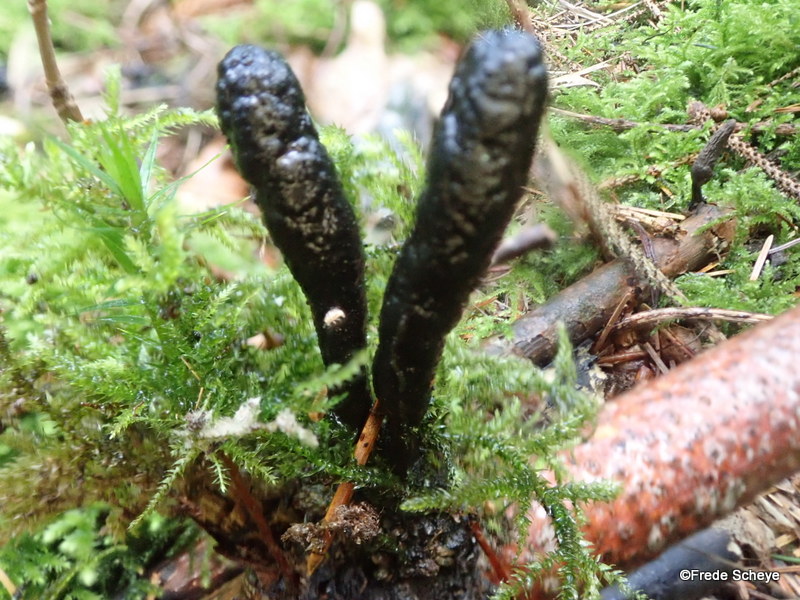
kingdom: Fungi
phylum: Ascomycota
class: Sordariomycetes
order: Xylariales
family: Xylariaceae
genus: Xylaria
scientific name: Xylaria longipes
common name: slank stødsvamp
